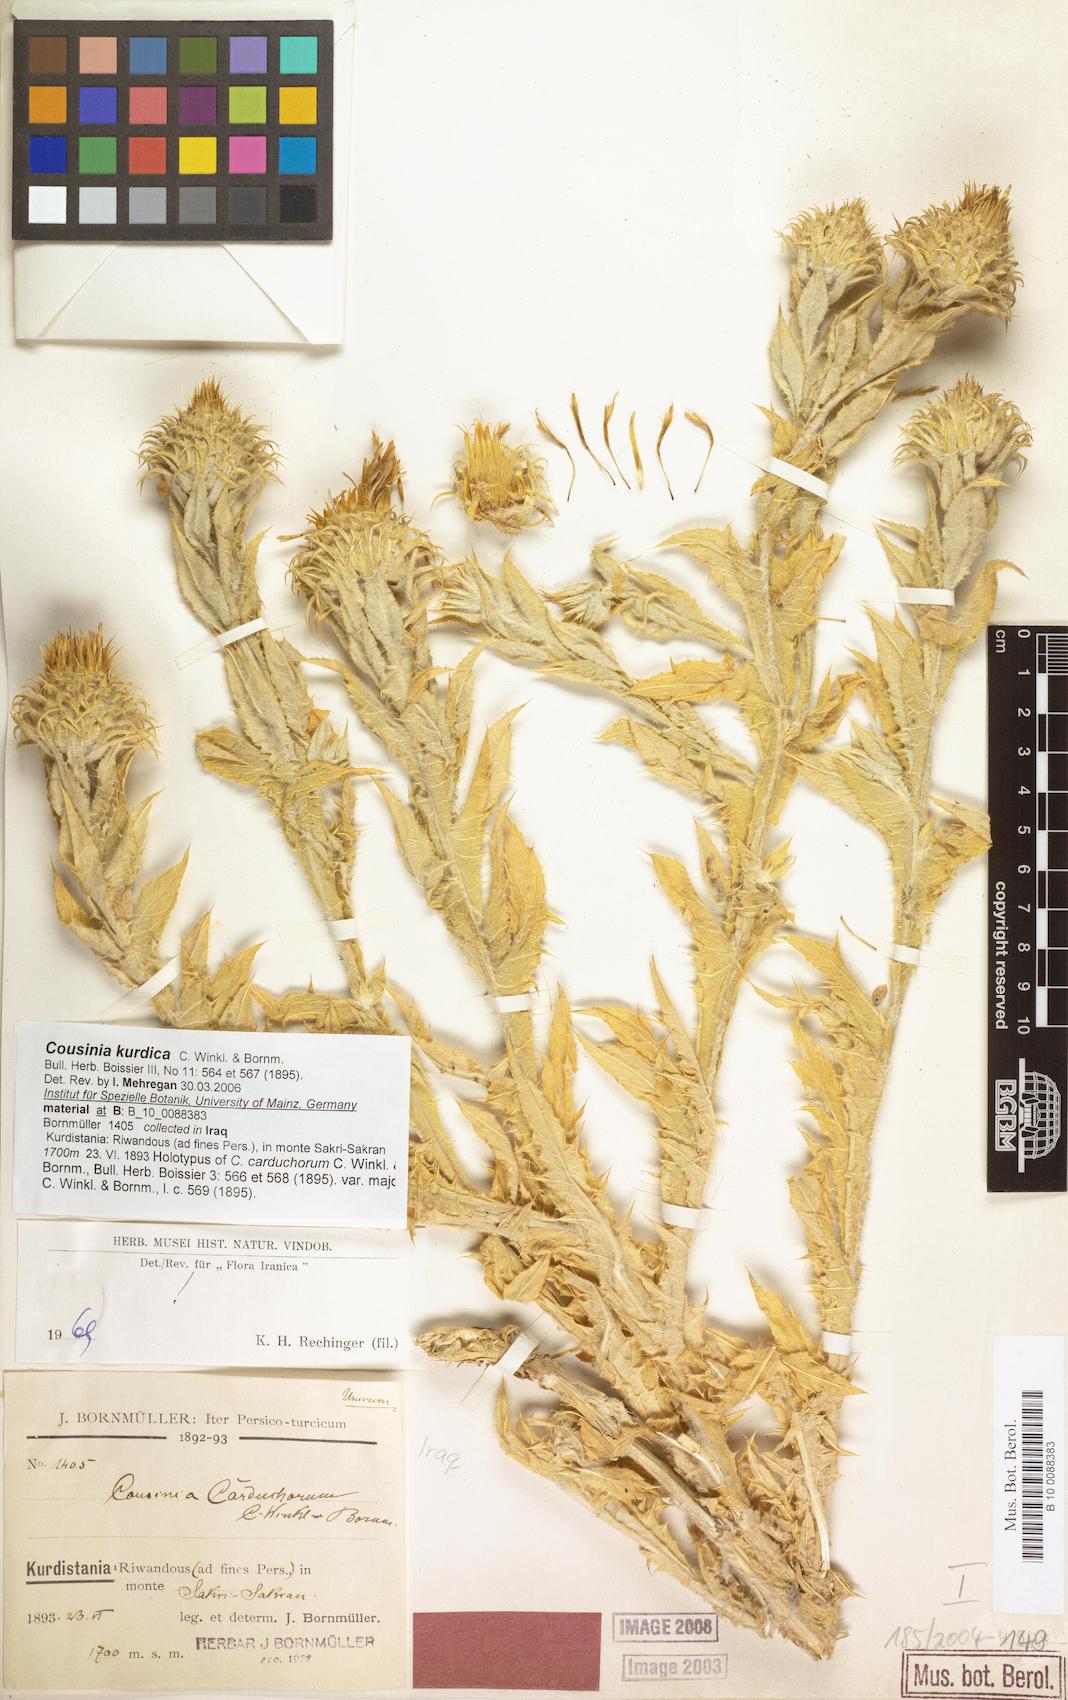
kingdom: Plantae
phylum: Tracheophyta
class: Magnoliopsida
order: Asterales
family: Asteraceae
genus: Cousinia
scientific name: Cousinia odontolepis
